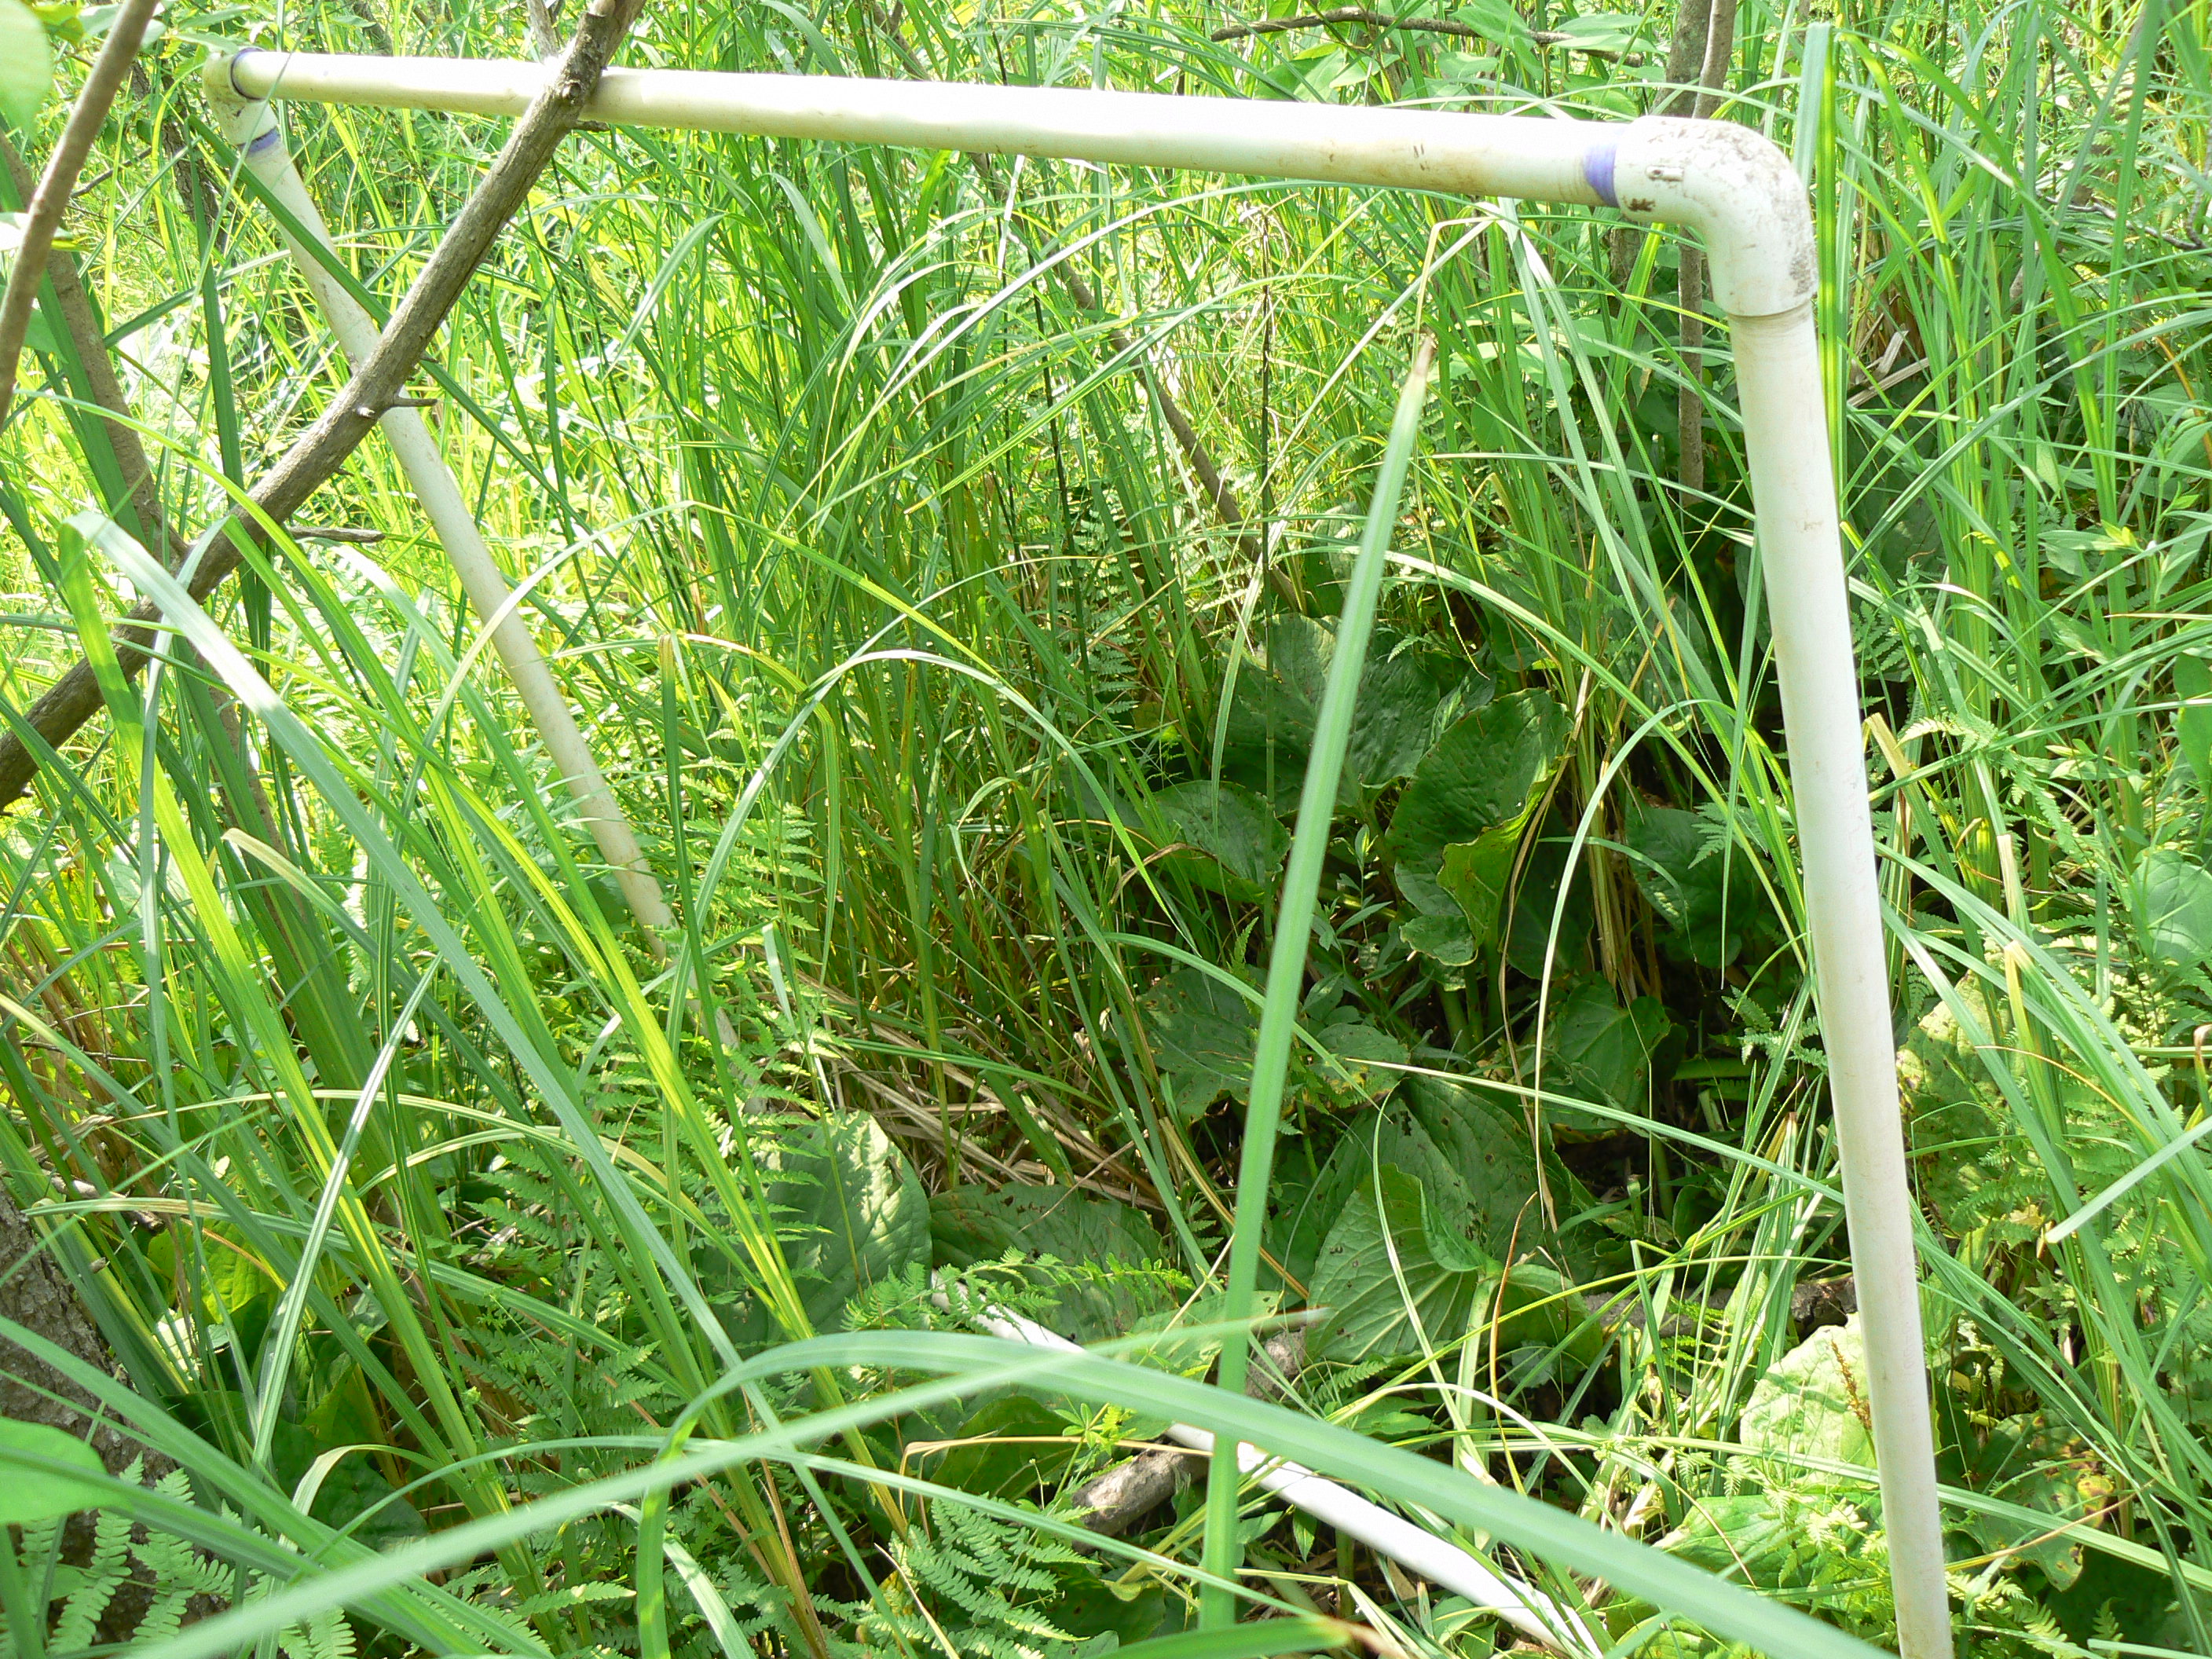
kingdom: Plantae
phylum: Tracheophyta
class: Magnoliopsida
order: Malpighiales
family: Violaceae
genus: Viola
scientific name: Viola nephrophylla
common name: Blue meadow violet
